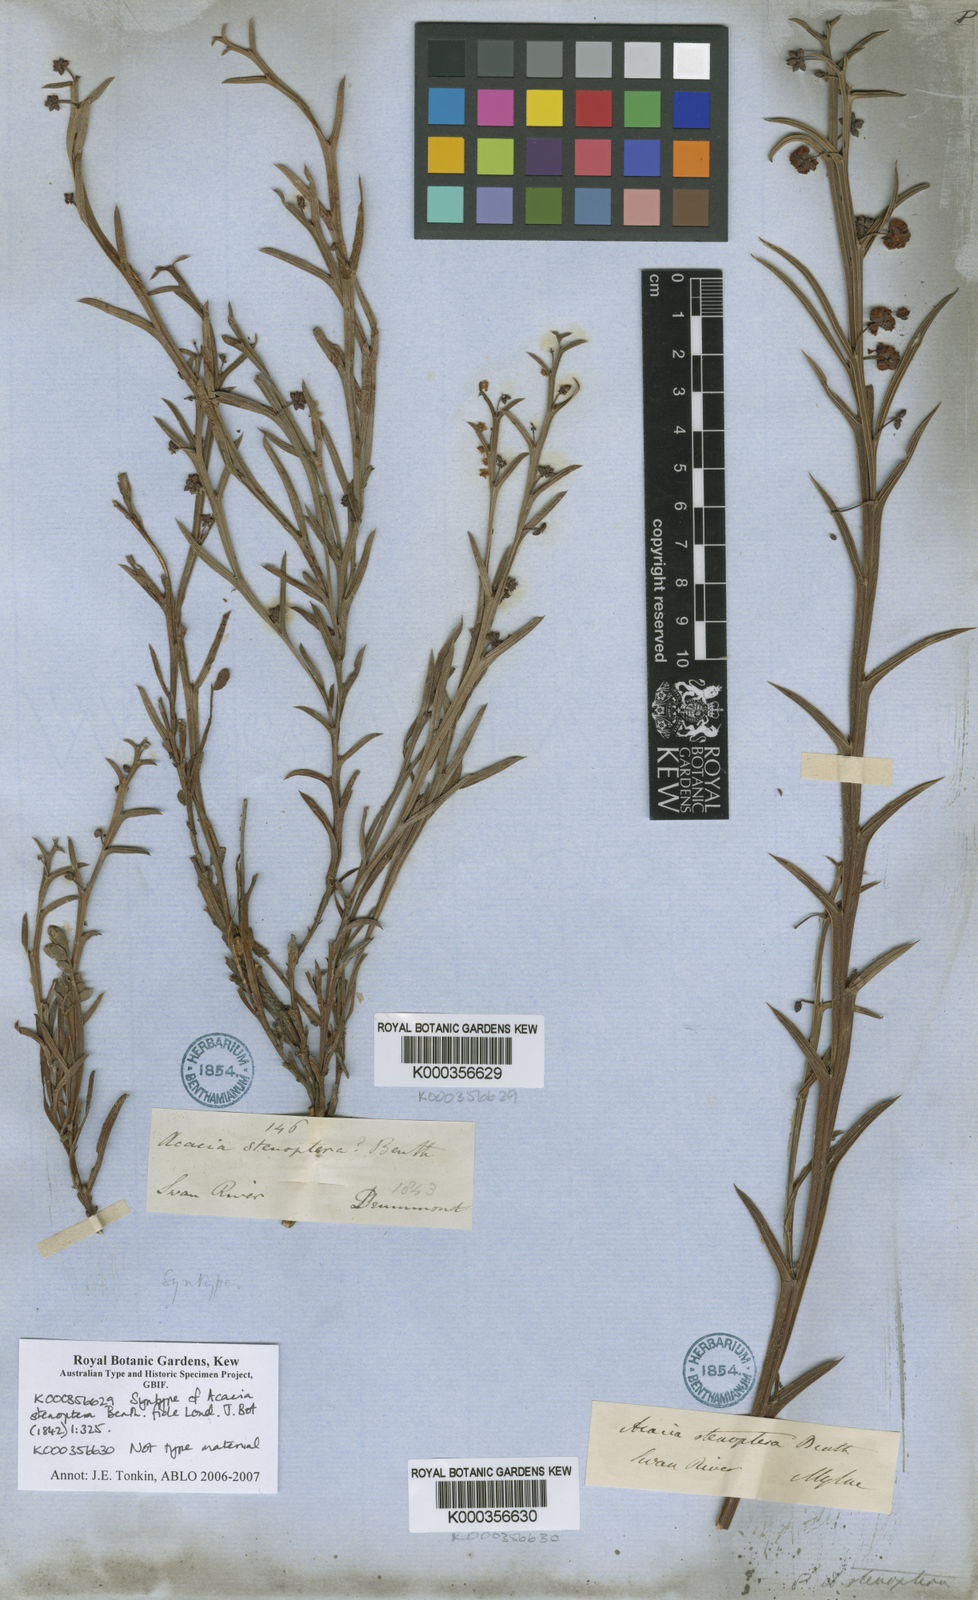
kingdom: Plantae
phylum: Tracheophyta
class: Magnoliopsida
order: Fabales
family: Fabaceae
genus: Acacia
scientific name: Acacia stenoptera
